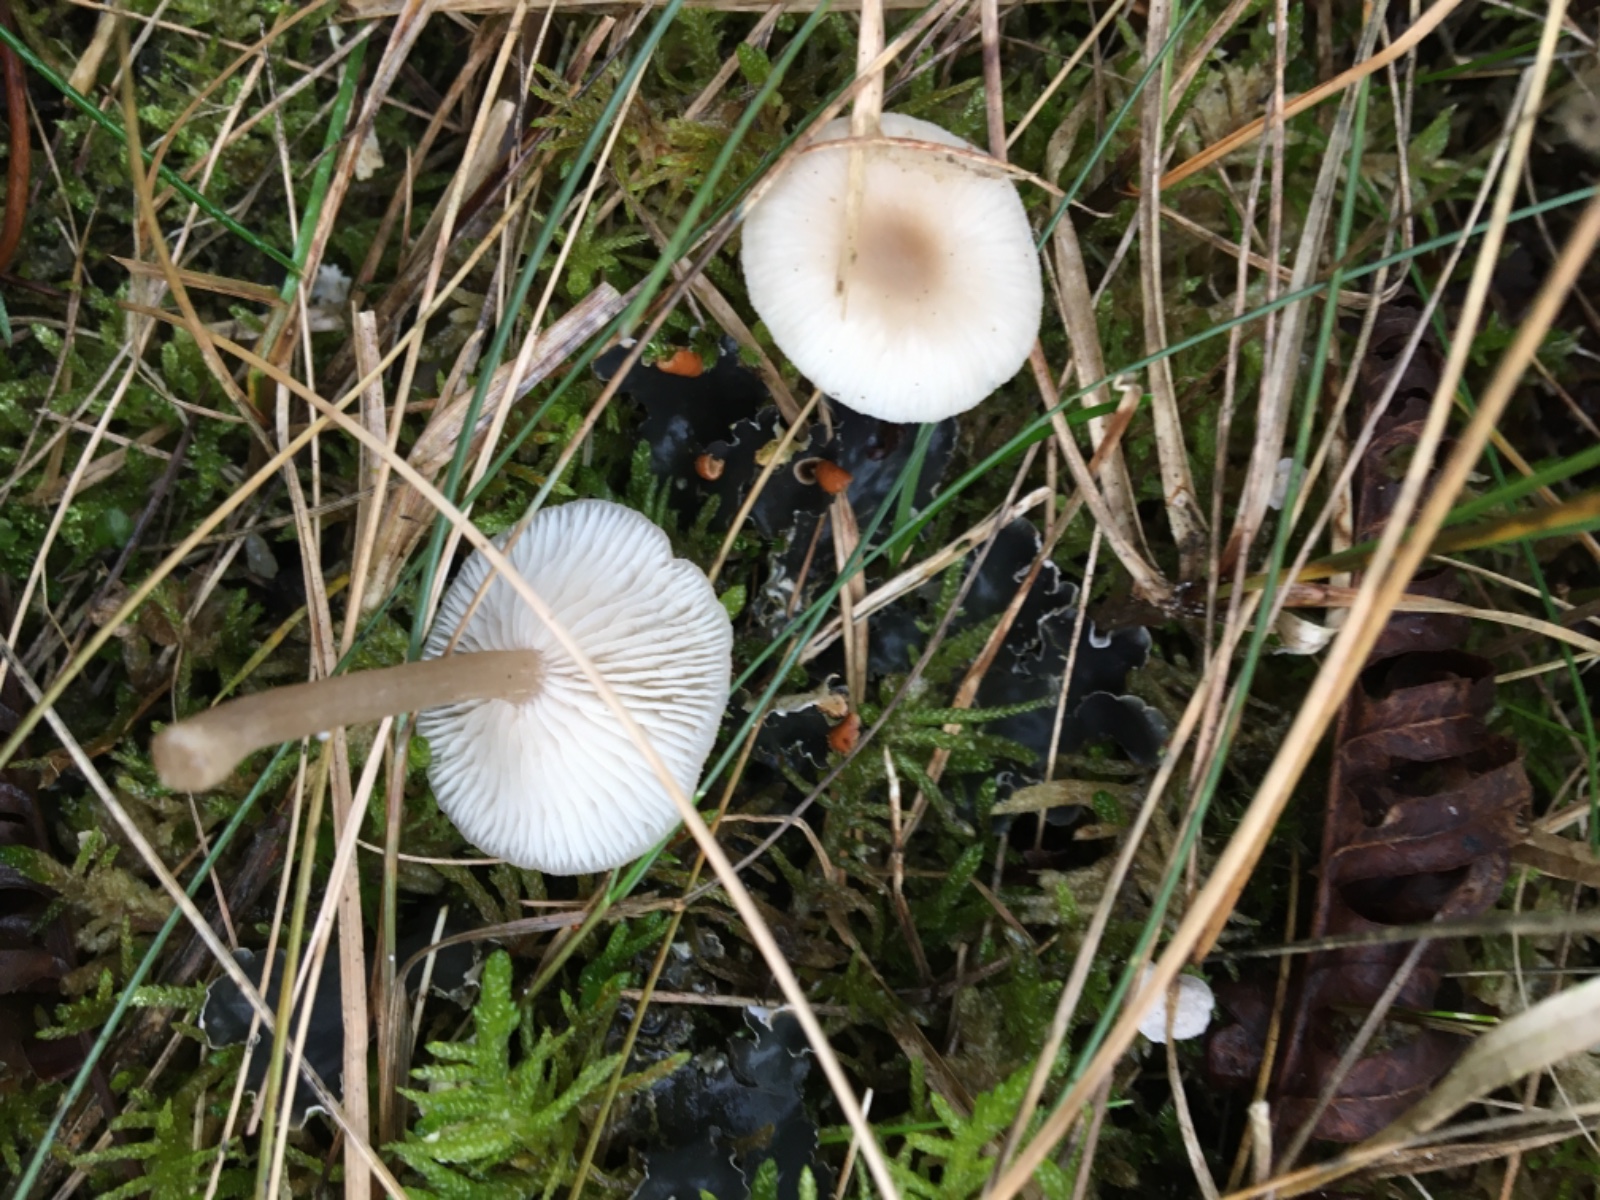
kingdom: Fungi
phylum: Basidiomycota
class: Agaricomycetes
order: Agaricales
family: Tricholomataceae
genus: Clitocybe
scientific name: Clitocybe fragrans
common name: vellugtende tragthat
